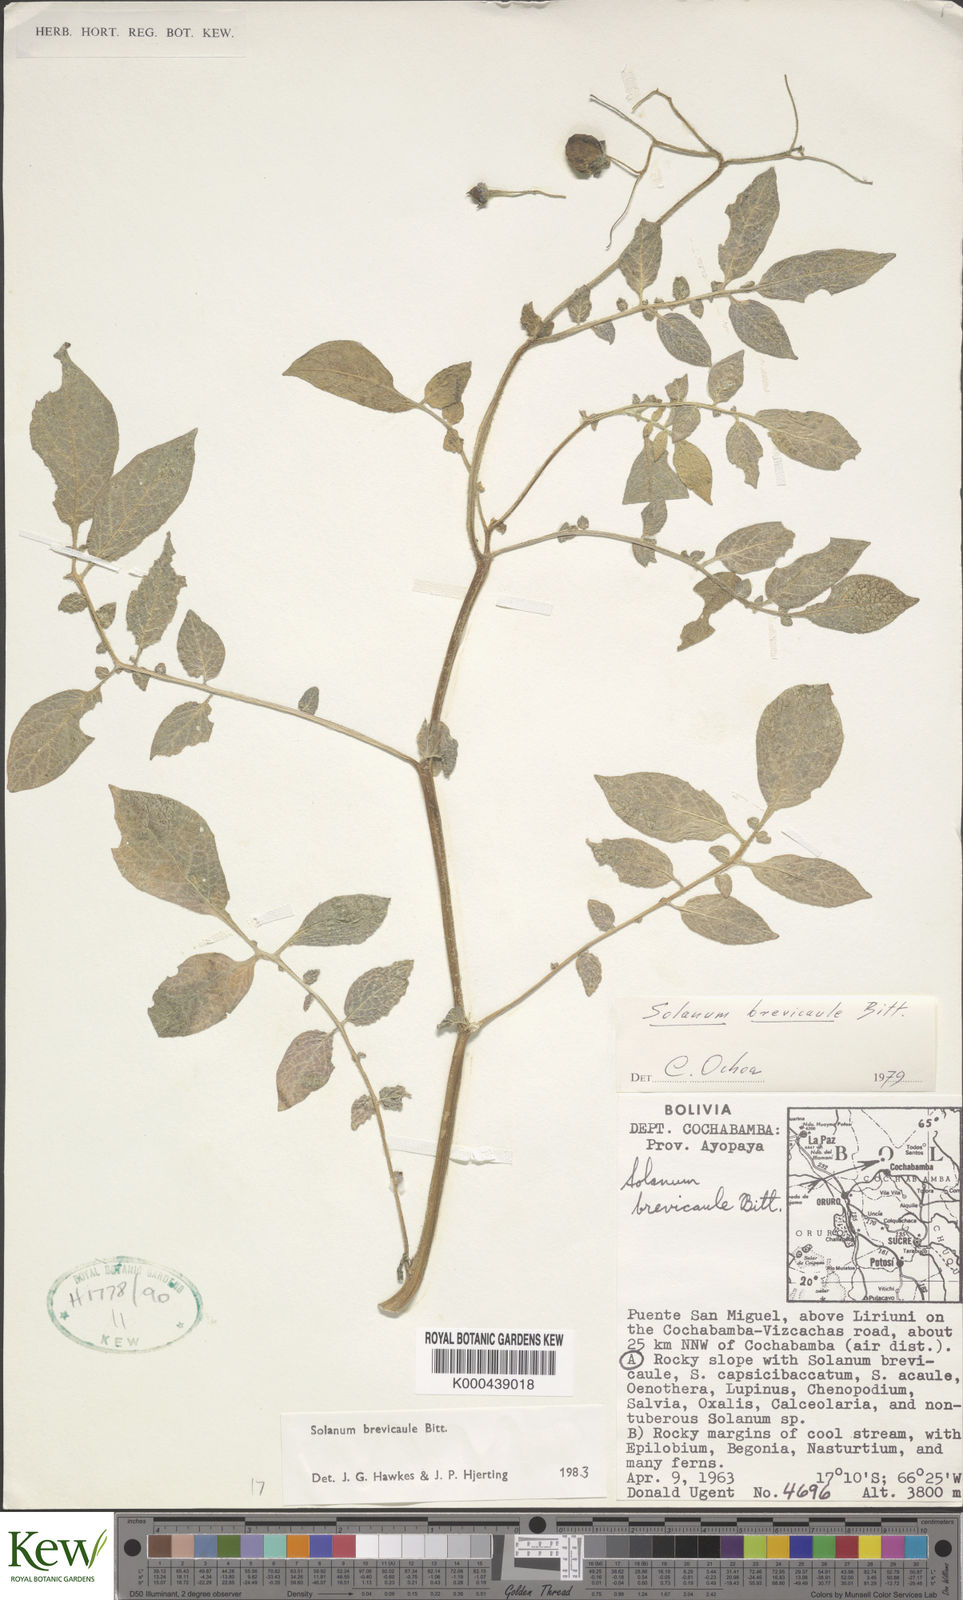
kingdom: Plantae
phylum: Tracheophyta
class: Magnoliopsida
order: Solanales
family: Solanaceae
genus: Solanum
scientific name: Solanum brevicaule
